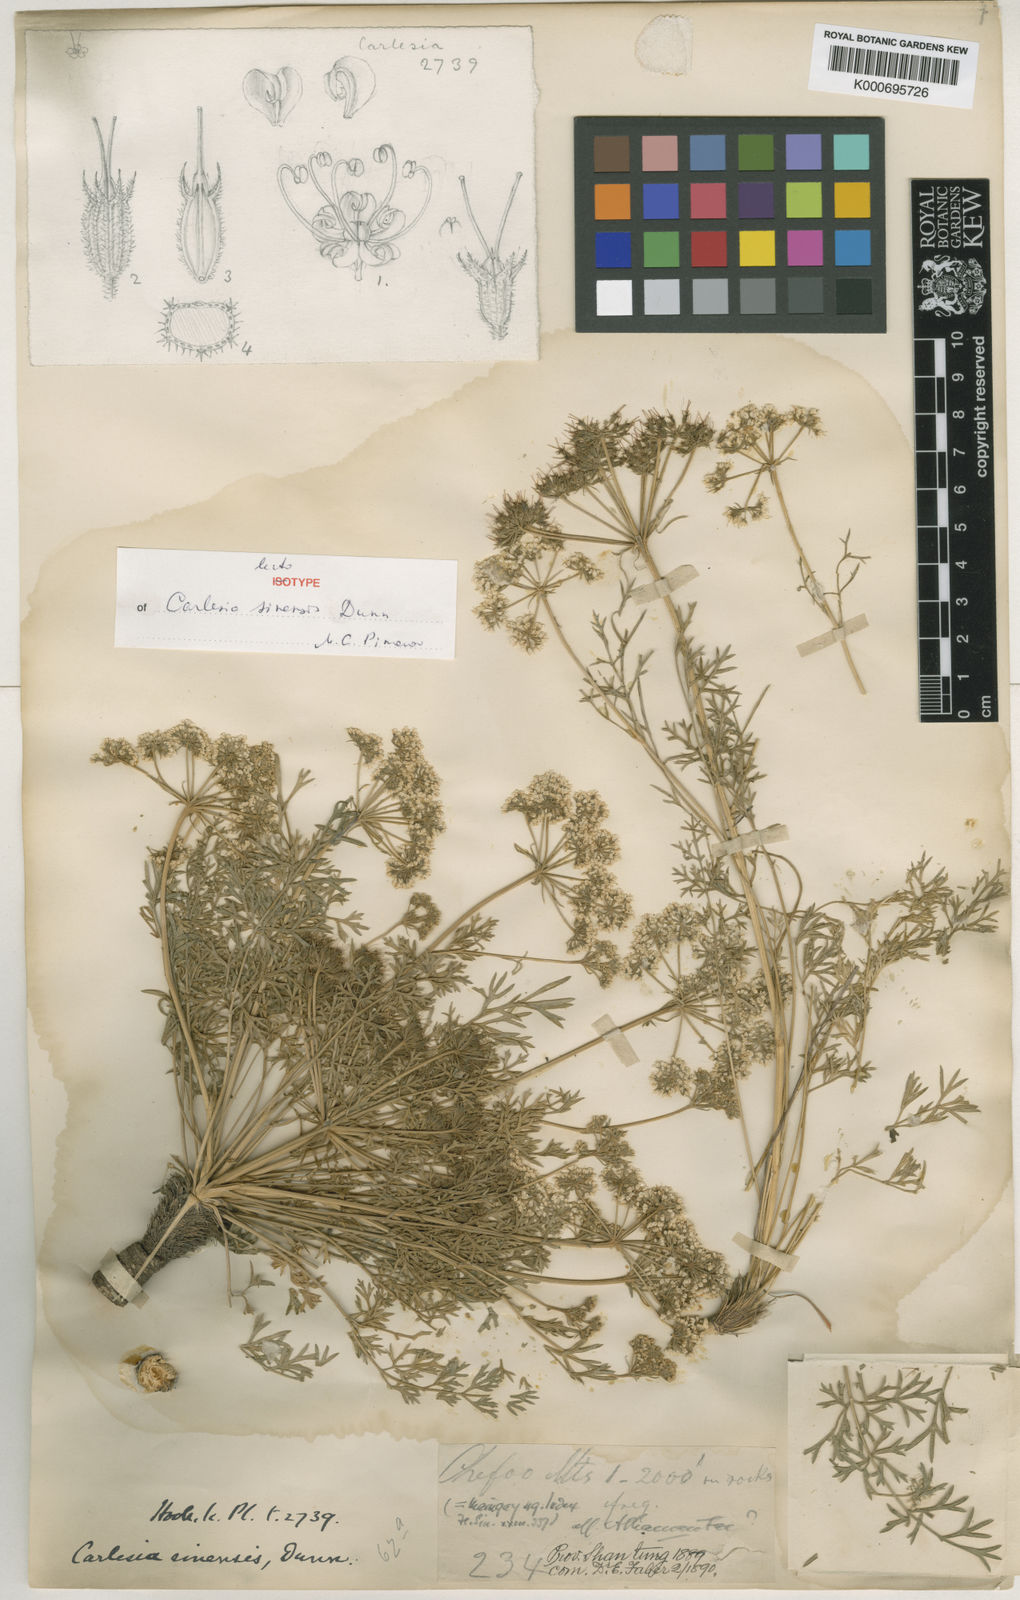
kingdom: Plantae
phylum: Tracheophyta
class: Magnoliopsida
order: Apiales
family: Apiaceae
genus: Carlesia
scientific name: Carlesia sinensis
